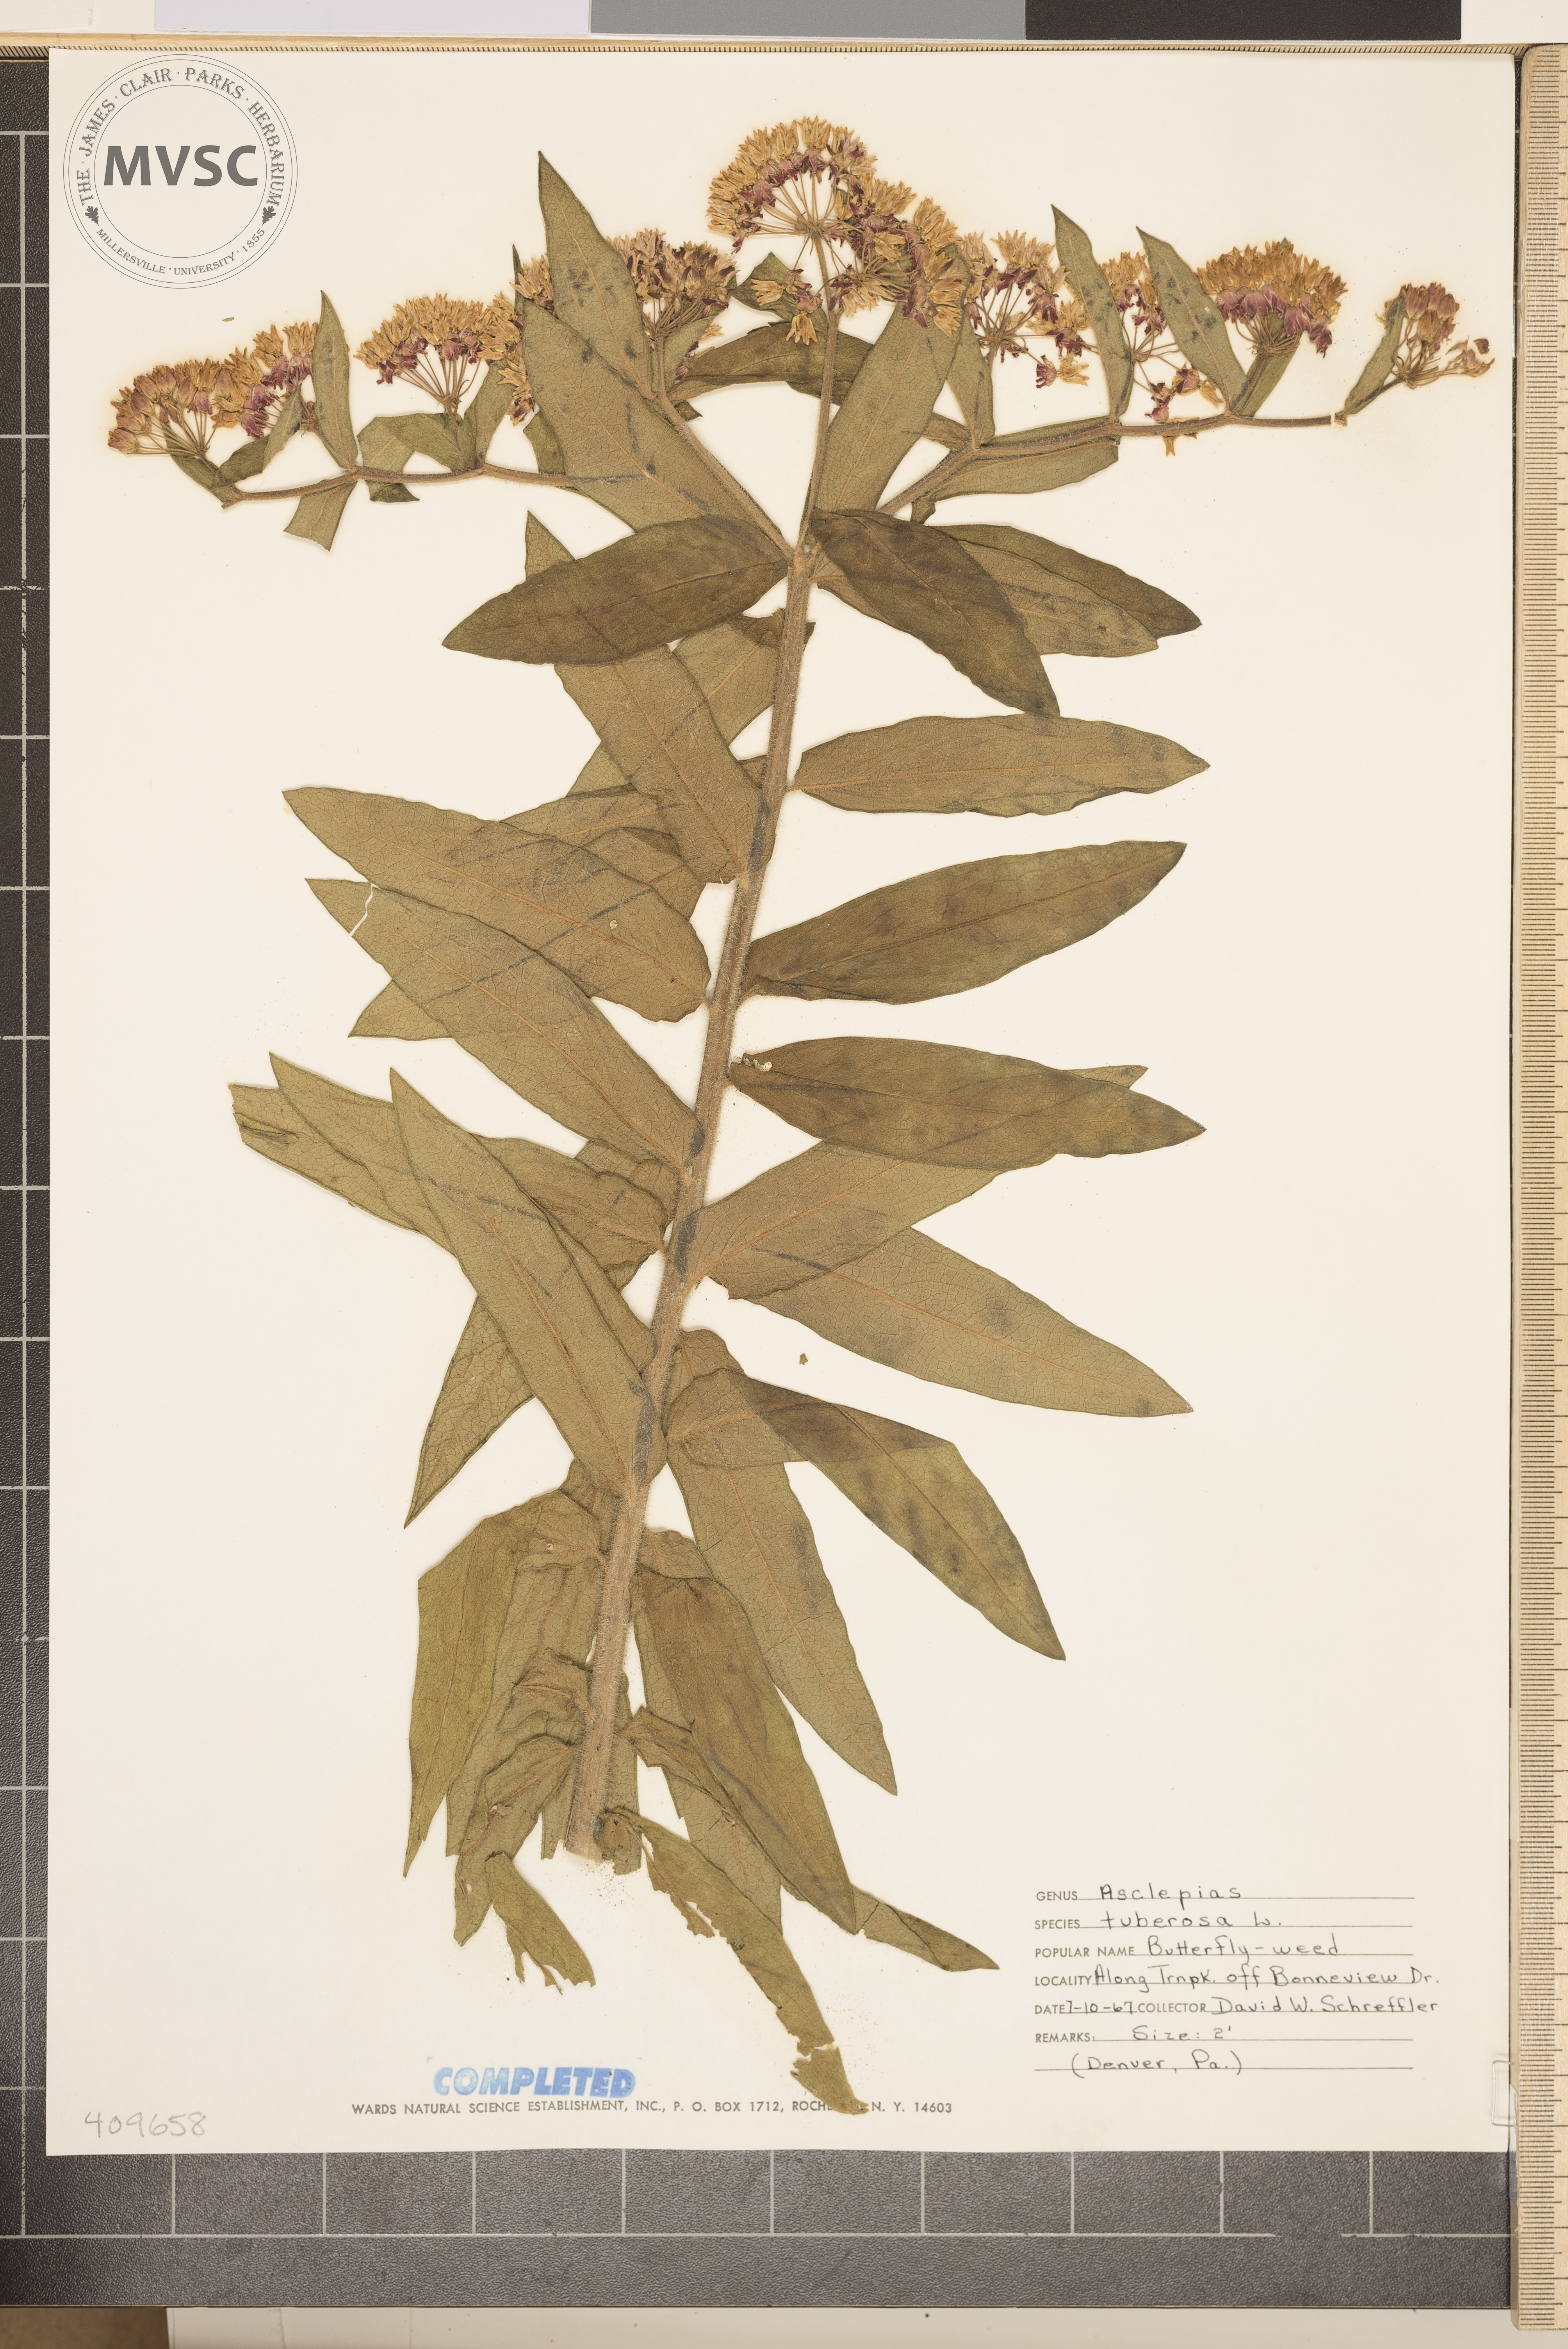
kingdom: Plantae
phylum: Tracheophyta
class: Magnoliopsida
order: Gentianales
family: Apocynaceae
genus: Asclepias
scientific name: Asclepias tuberosa
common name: Butterfly milkweed
